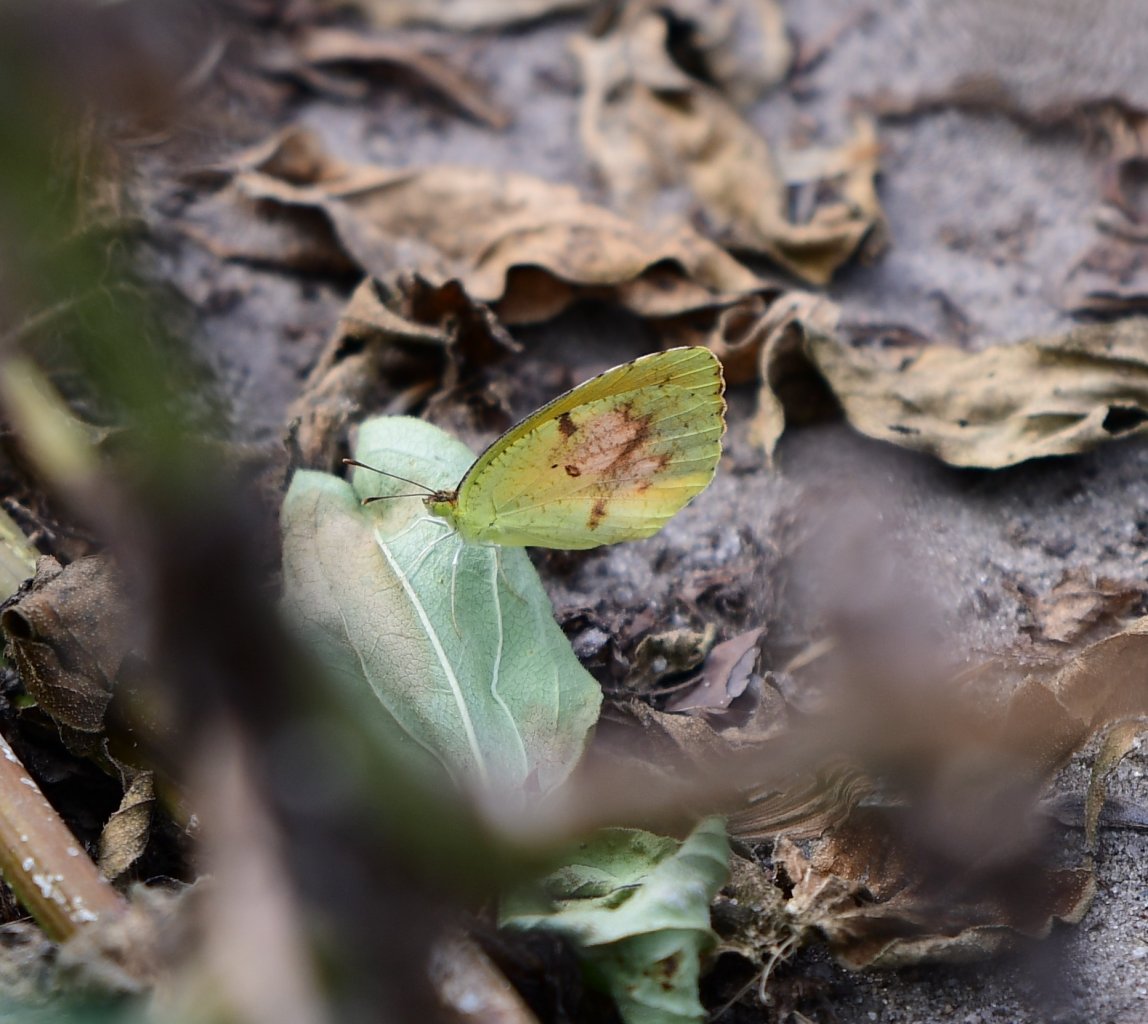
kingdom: Animalia
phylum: Arthropoda
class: Insecta
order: Lepidoptera
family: Pieridae
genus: Abaeis
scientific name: Abaeis nicippe
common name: Sleepy Orange
